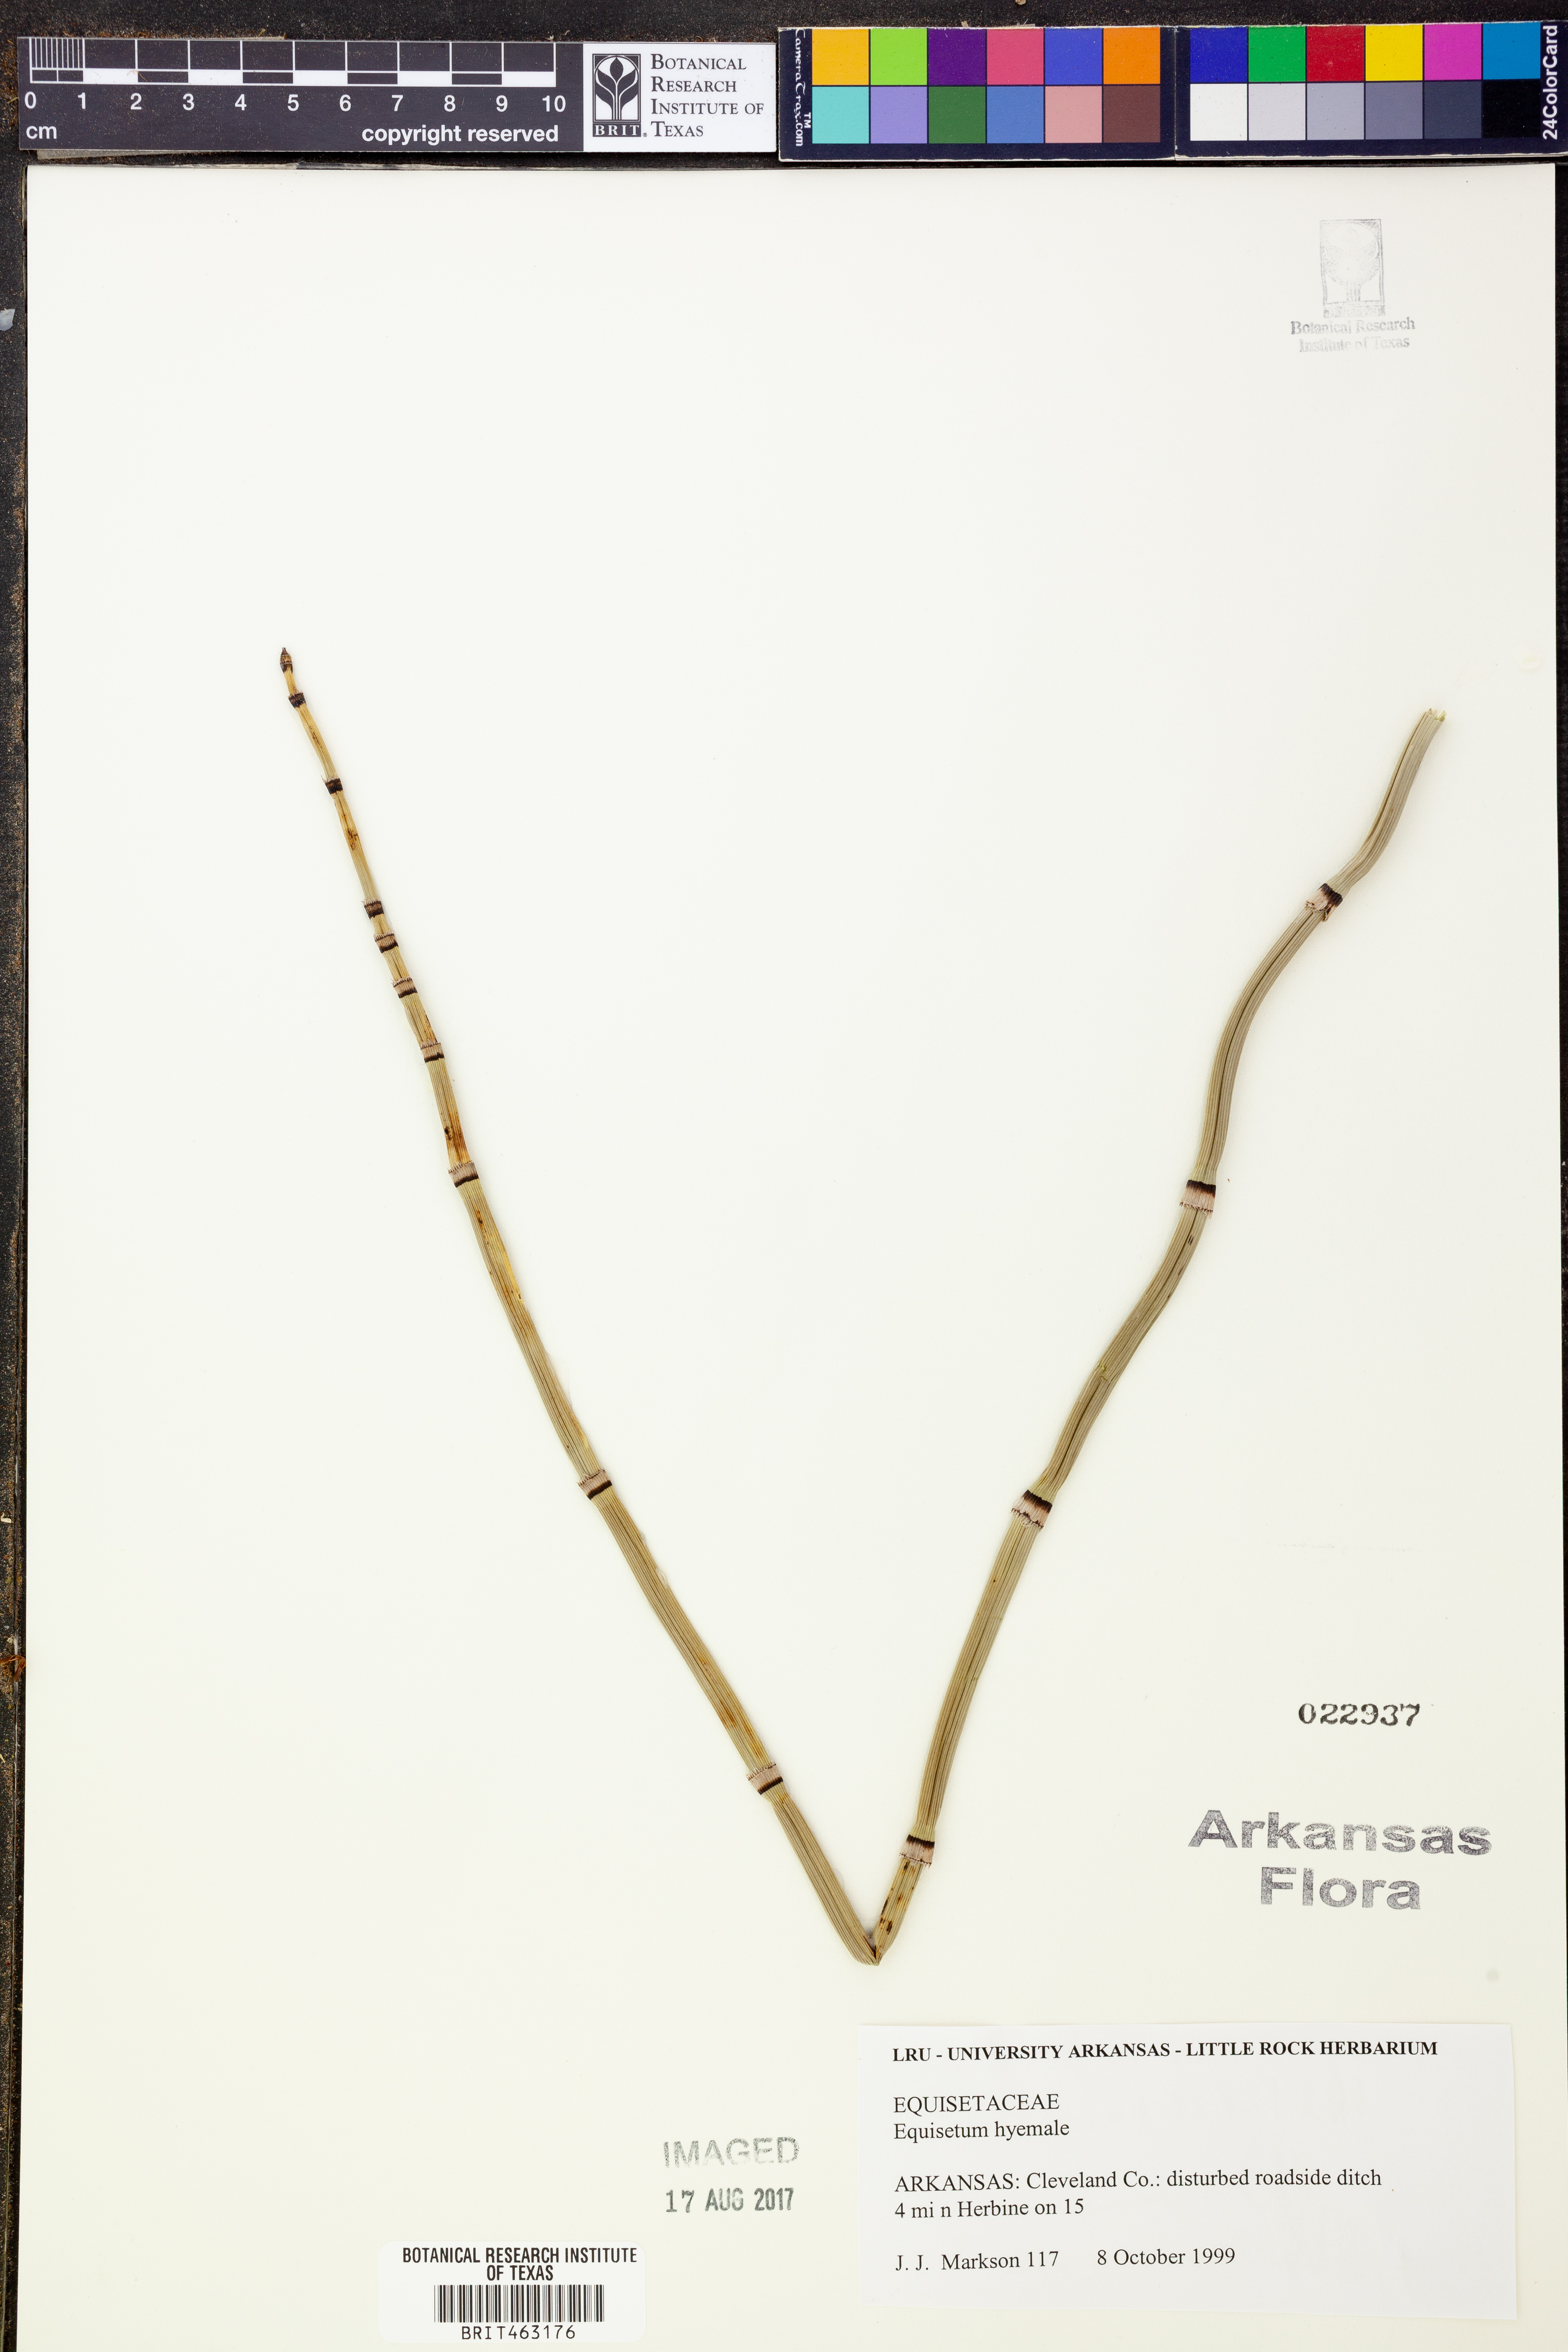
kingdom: Plantae
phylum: Tracheophyta
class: Polypodiopsida
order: Equisetales
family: Equisetaceae
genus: Equisetum
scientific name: Equisetum hyemale
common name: Rough horsetail
